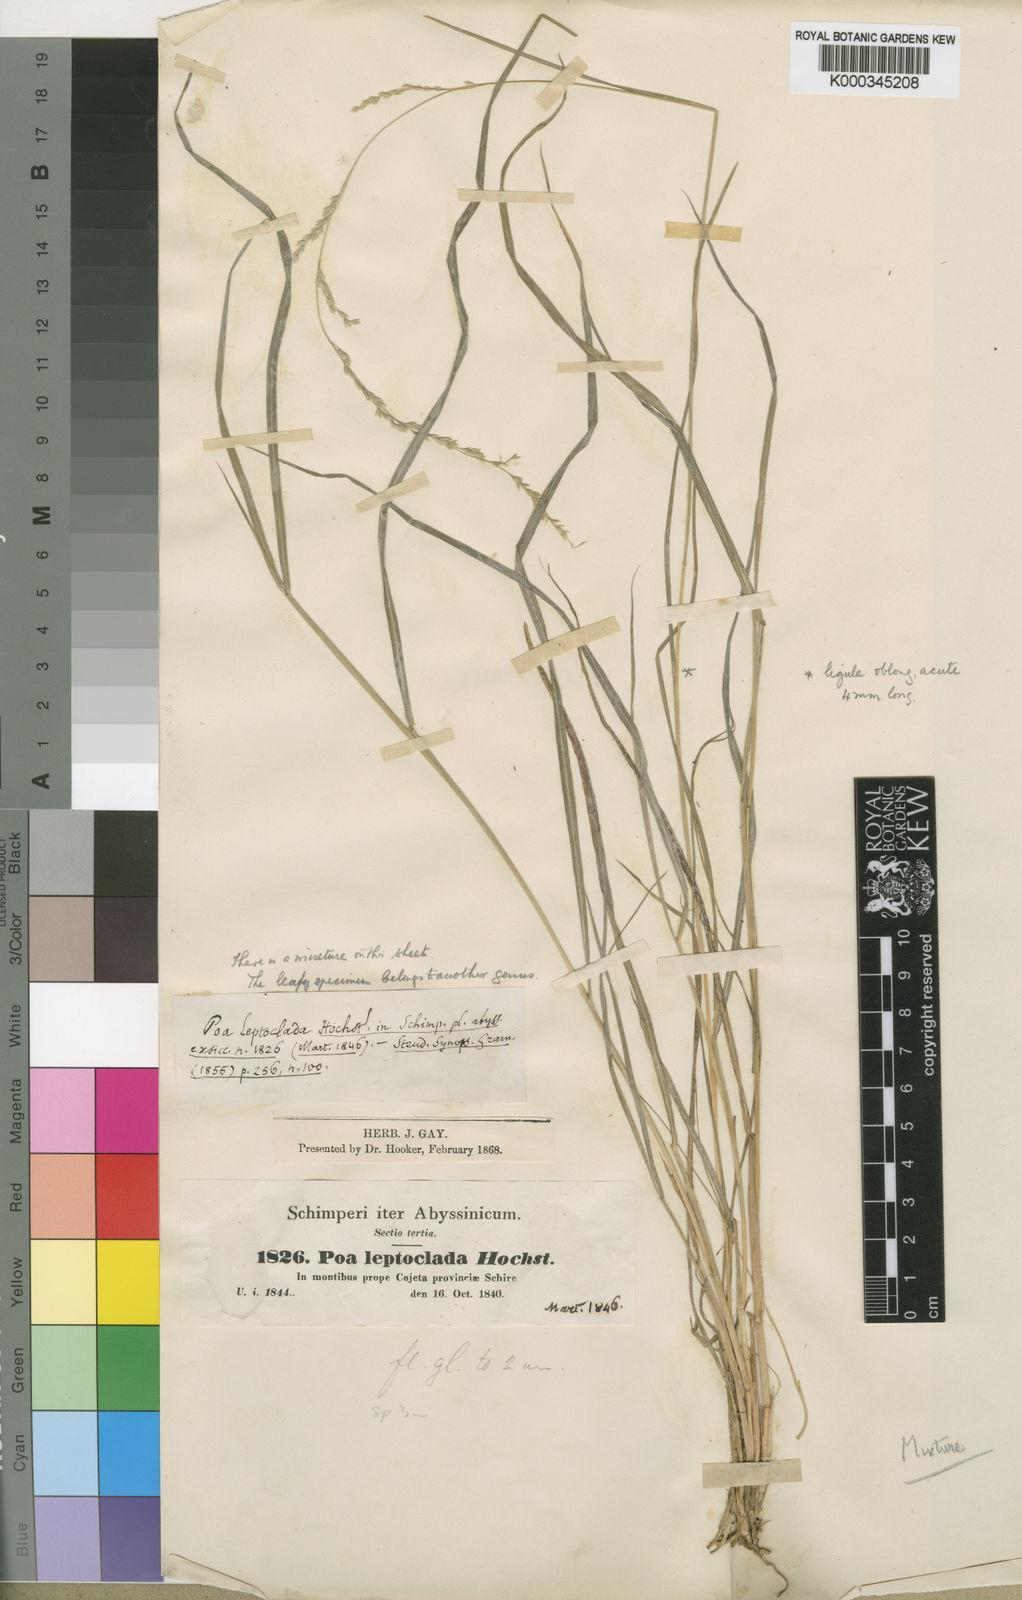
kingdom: Plantae
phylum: Tracheophyta
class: Liliopsida
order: Poales
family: Poaceae
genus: Poa
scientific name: Poa leptoclada
